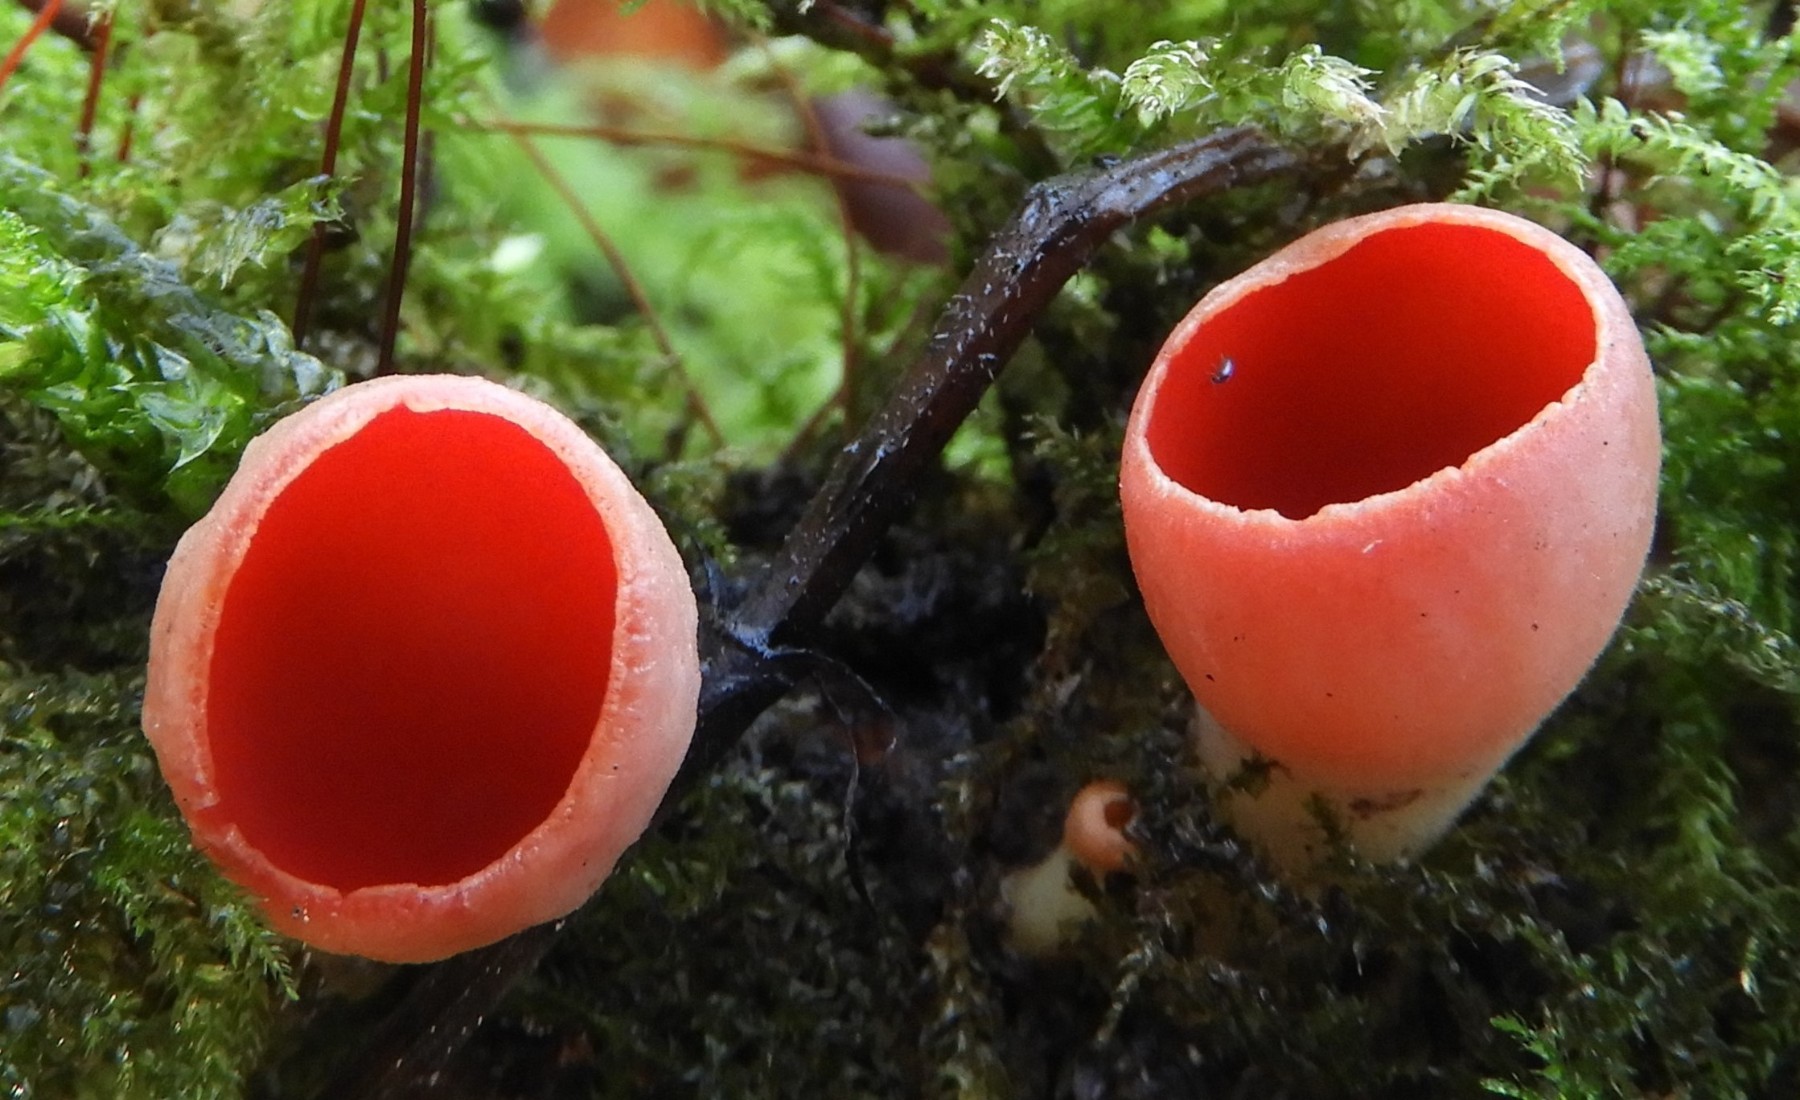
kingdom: Fungi
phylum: Ascomycota
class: Pezizomycetes
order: Pezizales
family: Sarcoscyphaceae
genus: Sarcoscypha
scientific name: Sarcoscypha austriaca
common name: krølhåret pragtbæger
